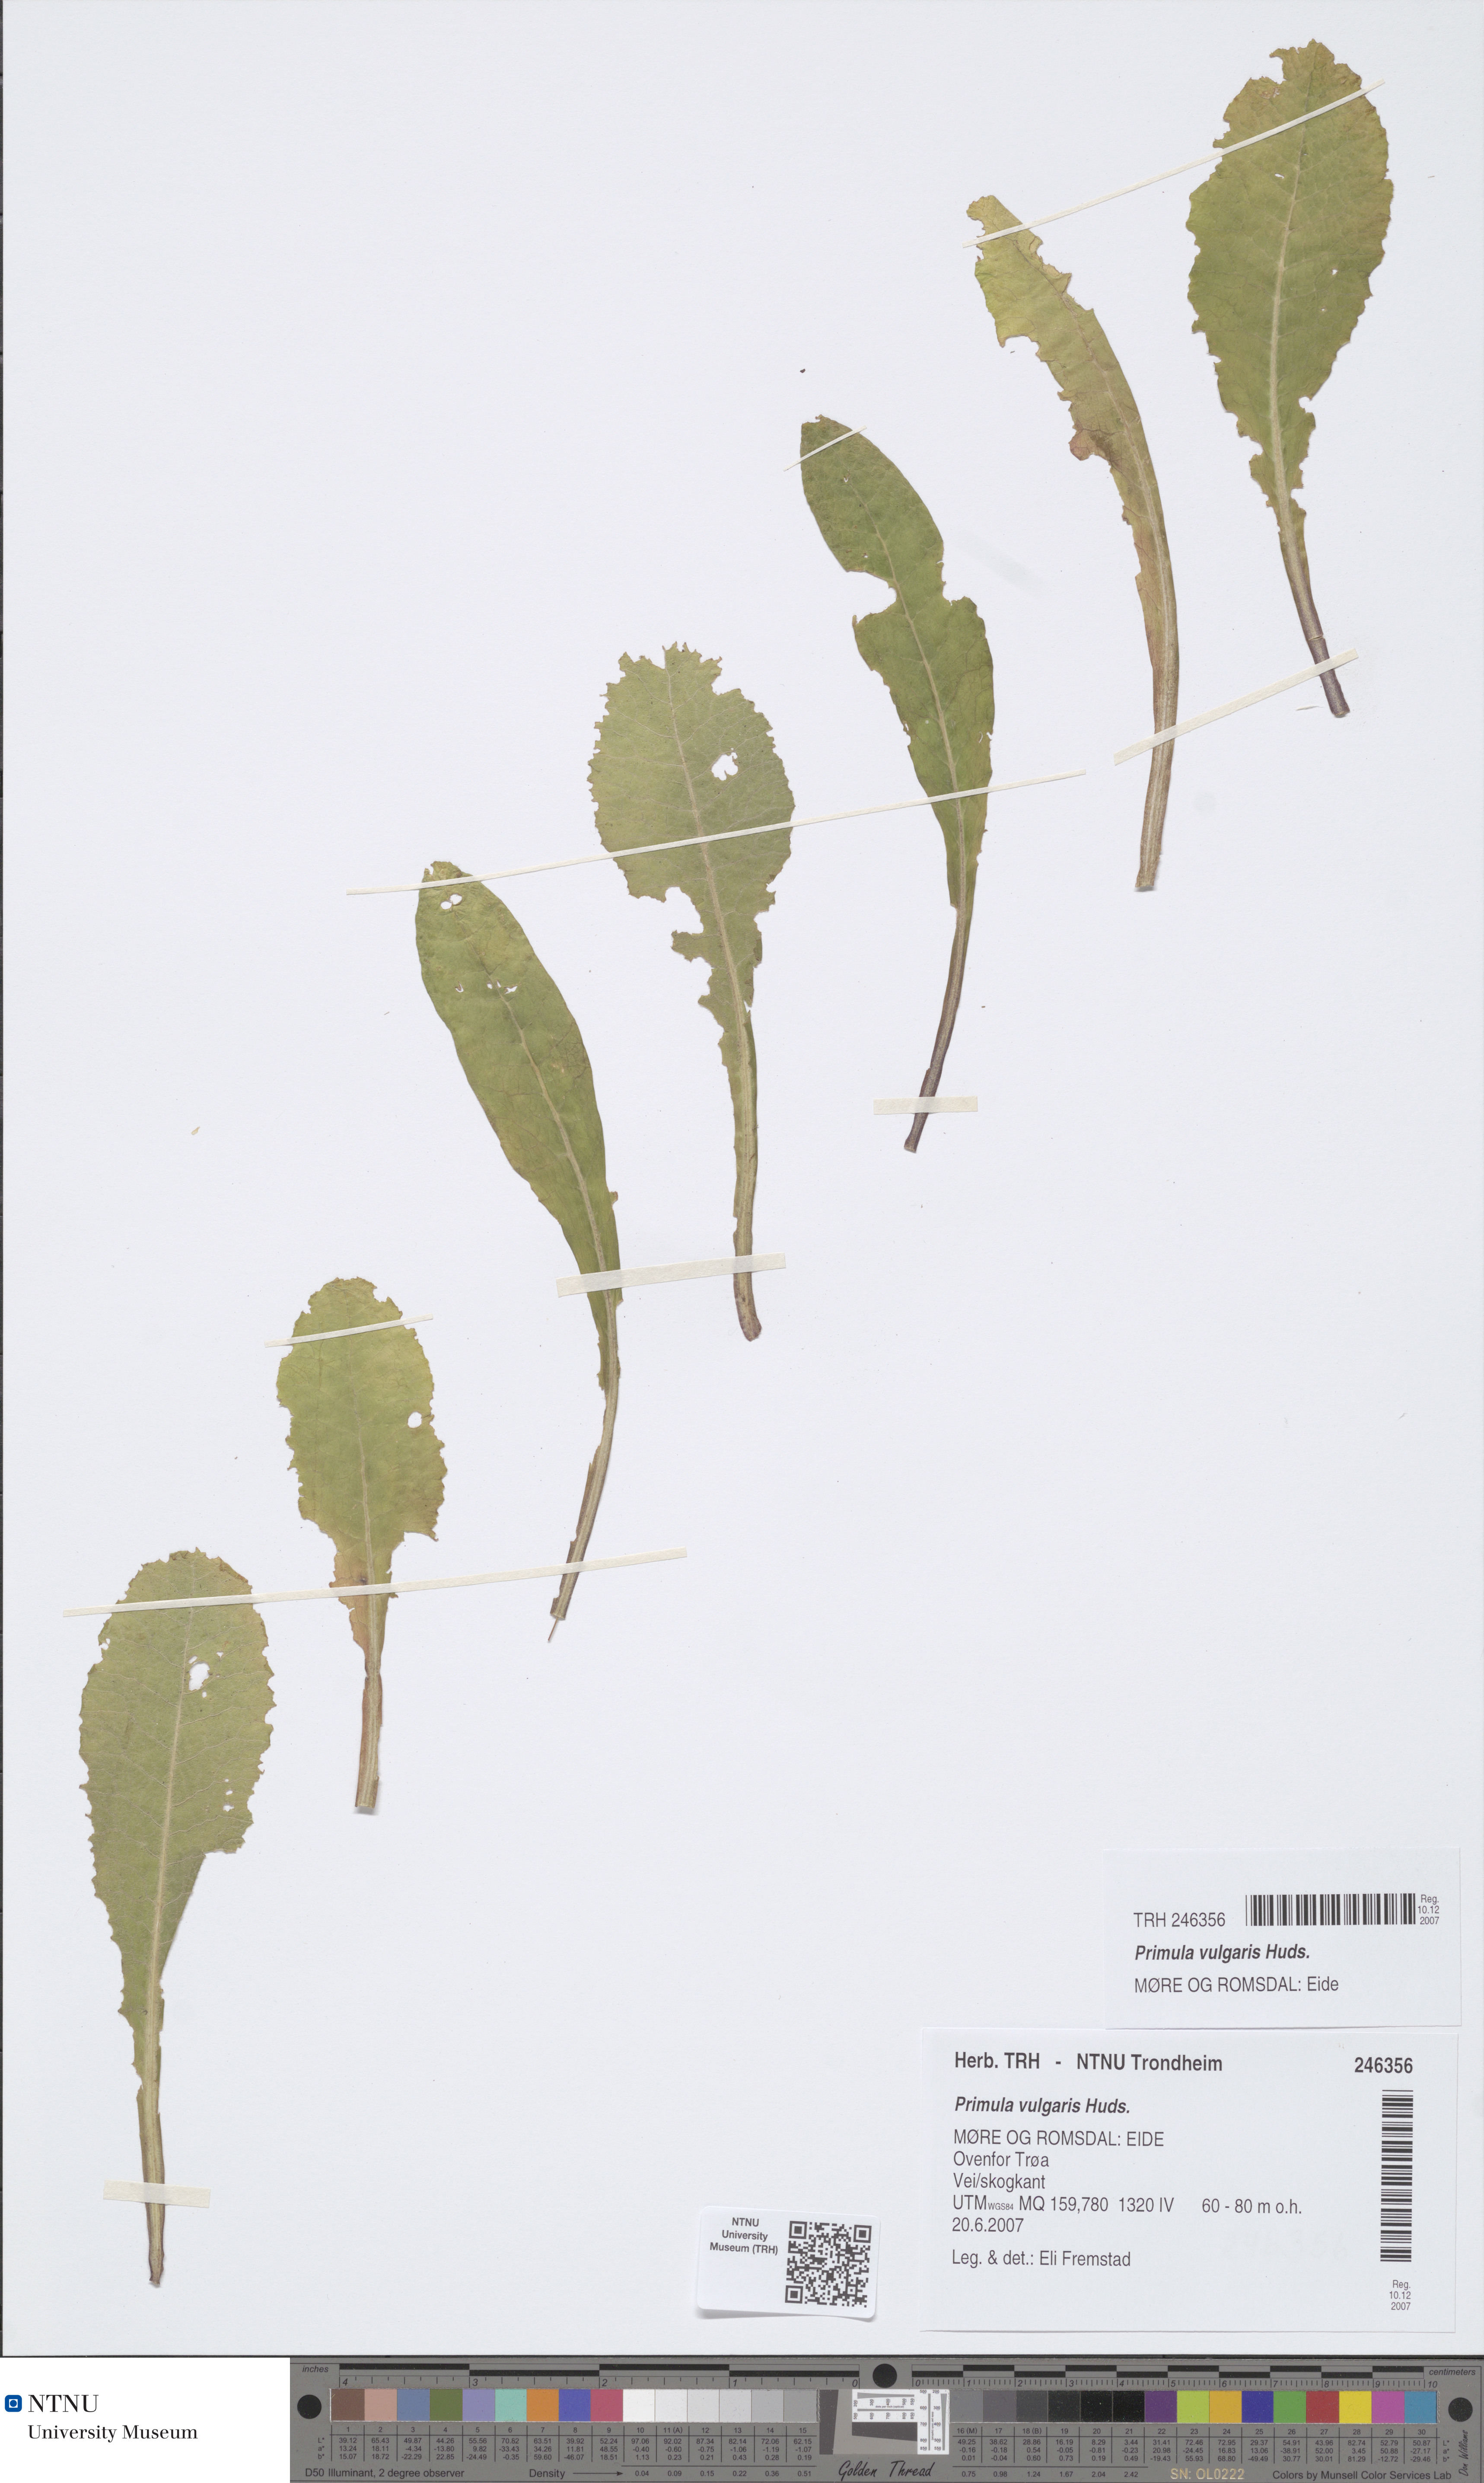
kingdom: Plantae
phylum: Tracheophyta
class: Magnoliopsida
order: Ericales
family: Primulaceae
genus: Primula
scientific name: Primula vulgaris
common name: Primrose
